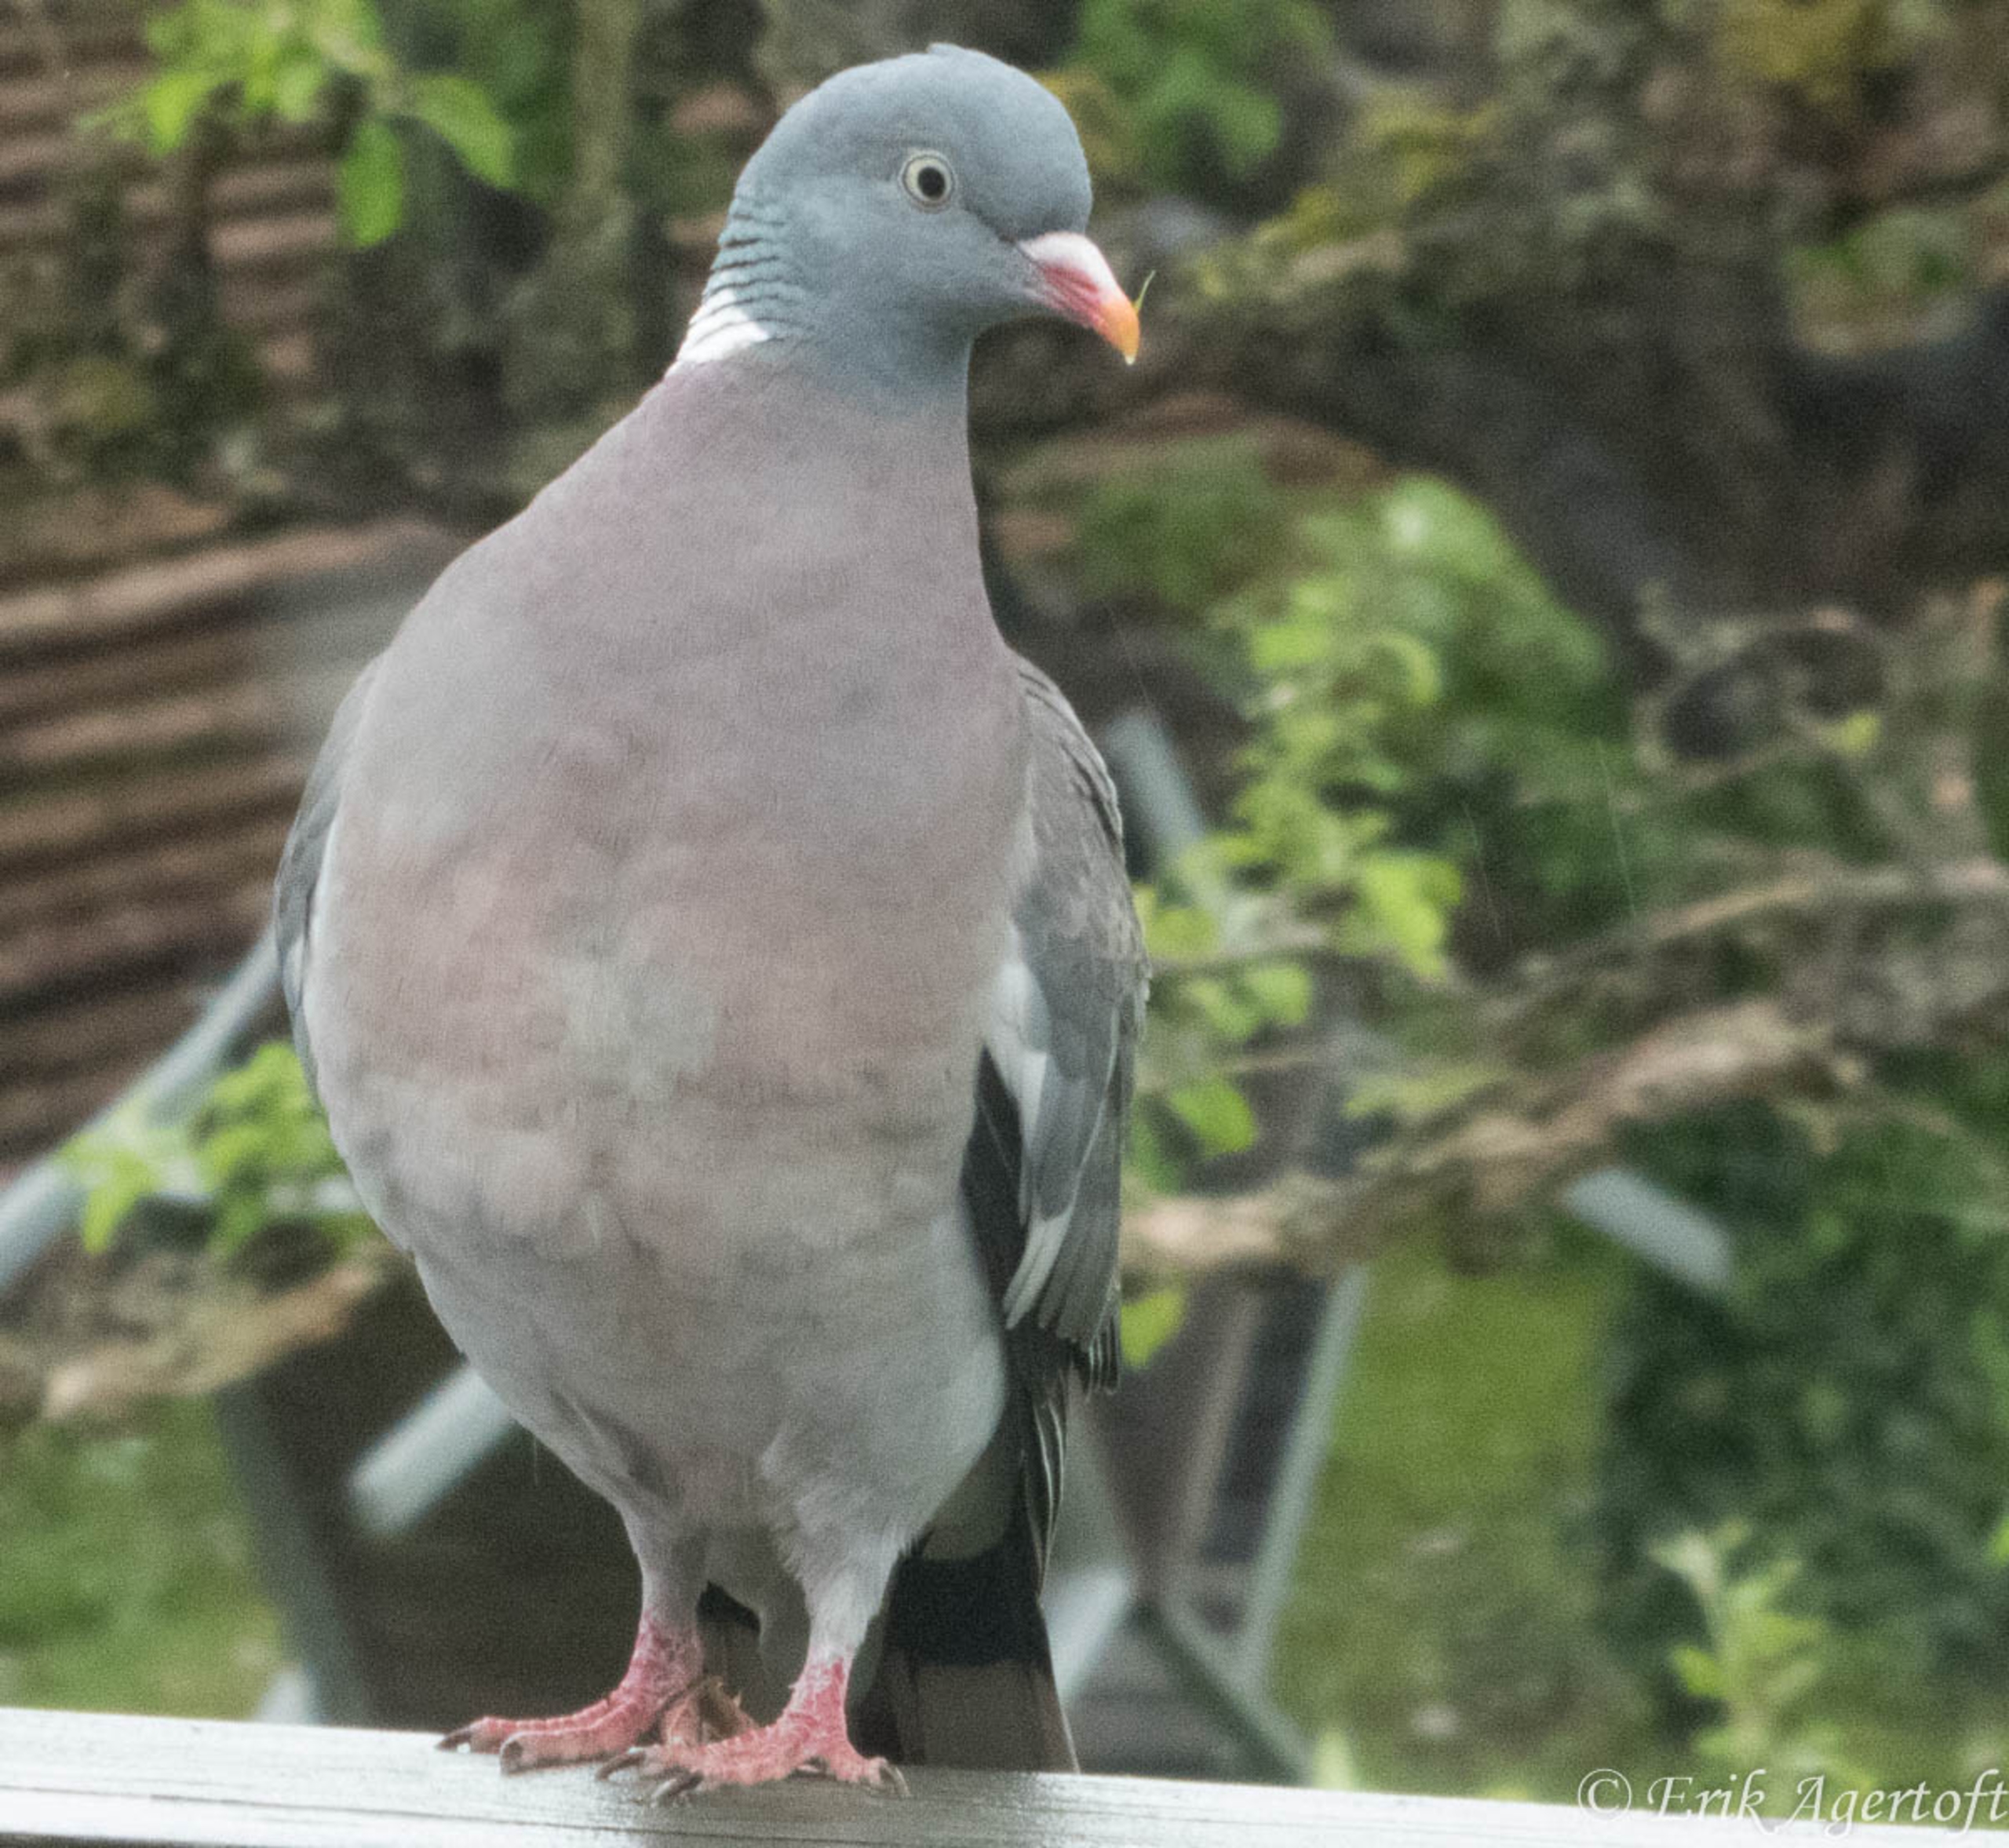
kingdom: Animalia
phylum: Chordata
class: Aves
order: Columbiformes
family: Columbidae
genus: Columba
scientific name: Columba palumbus
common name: Ringdue
